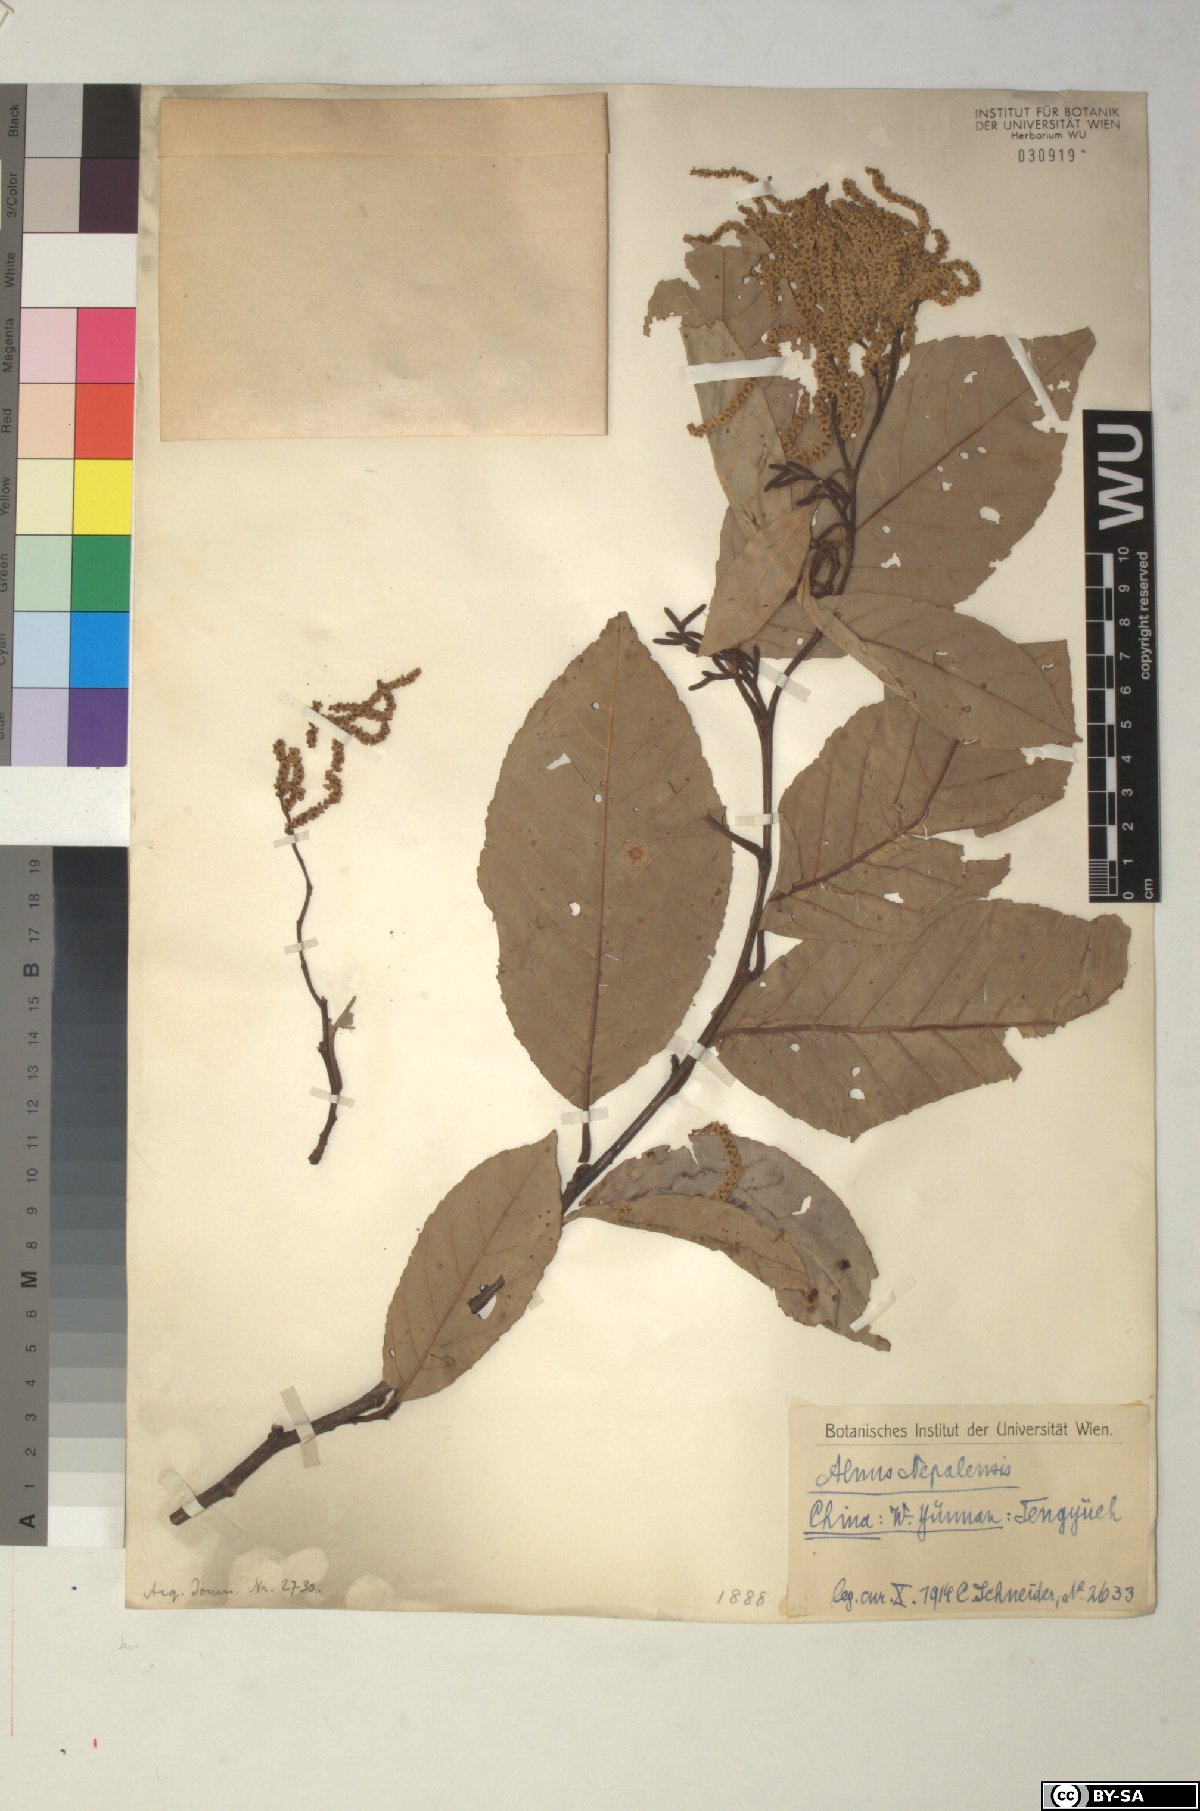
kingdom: Plantae
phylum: Tracheophyta
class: Magnoliopsida
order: Fagales
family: Betulaceae
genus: Alnus
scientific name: Alnus nepalensis
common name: Nepal alder
